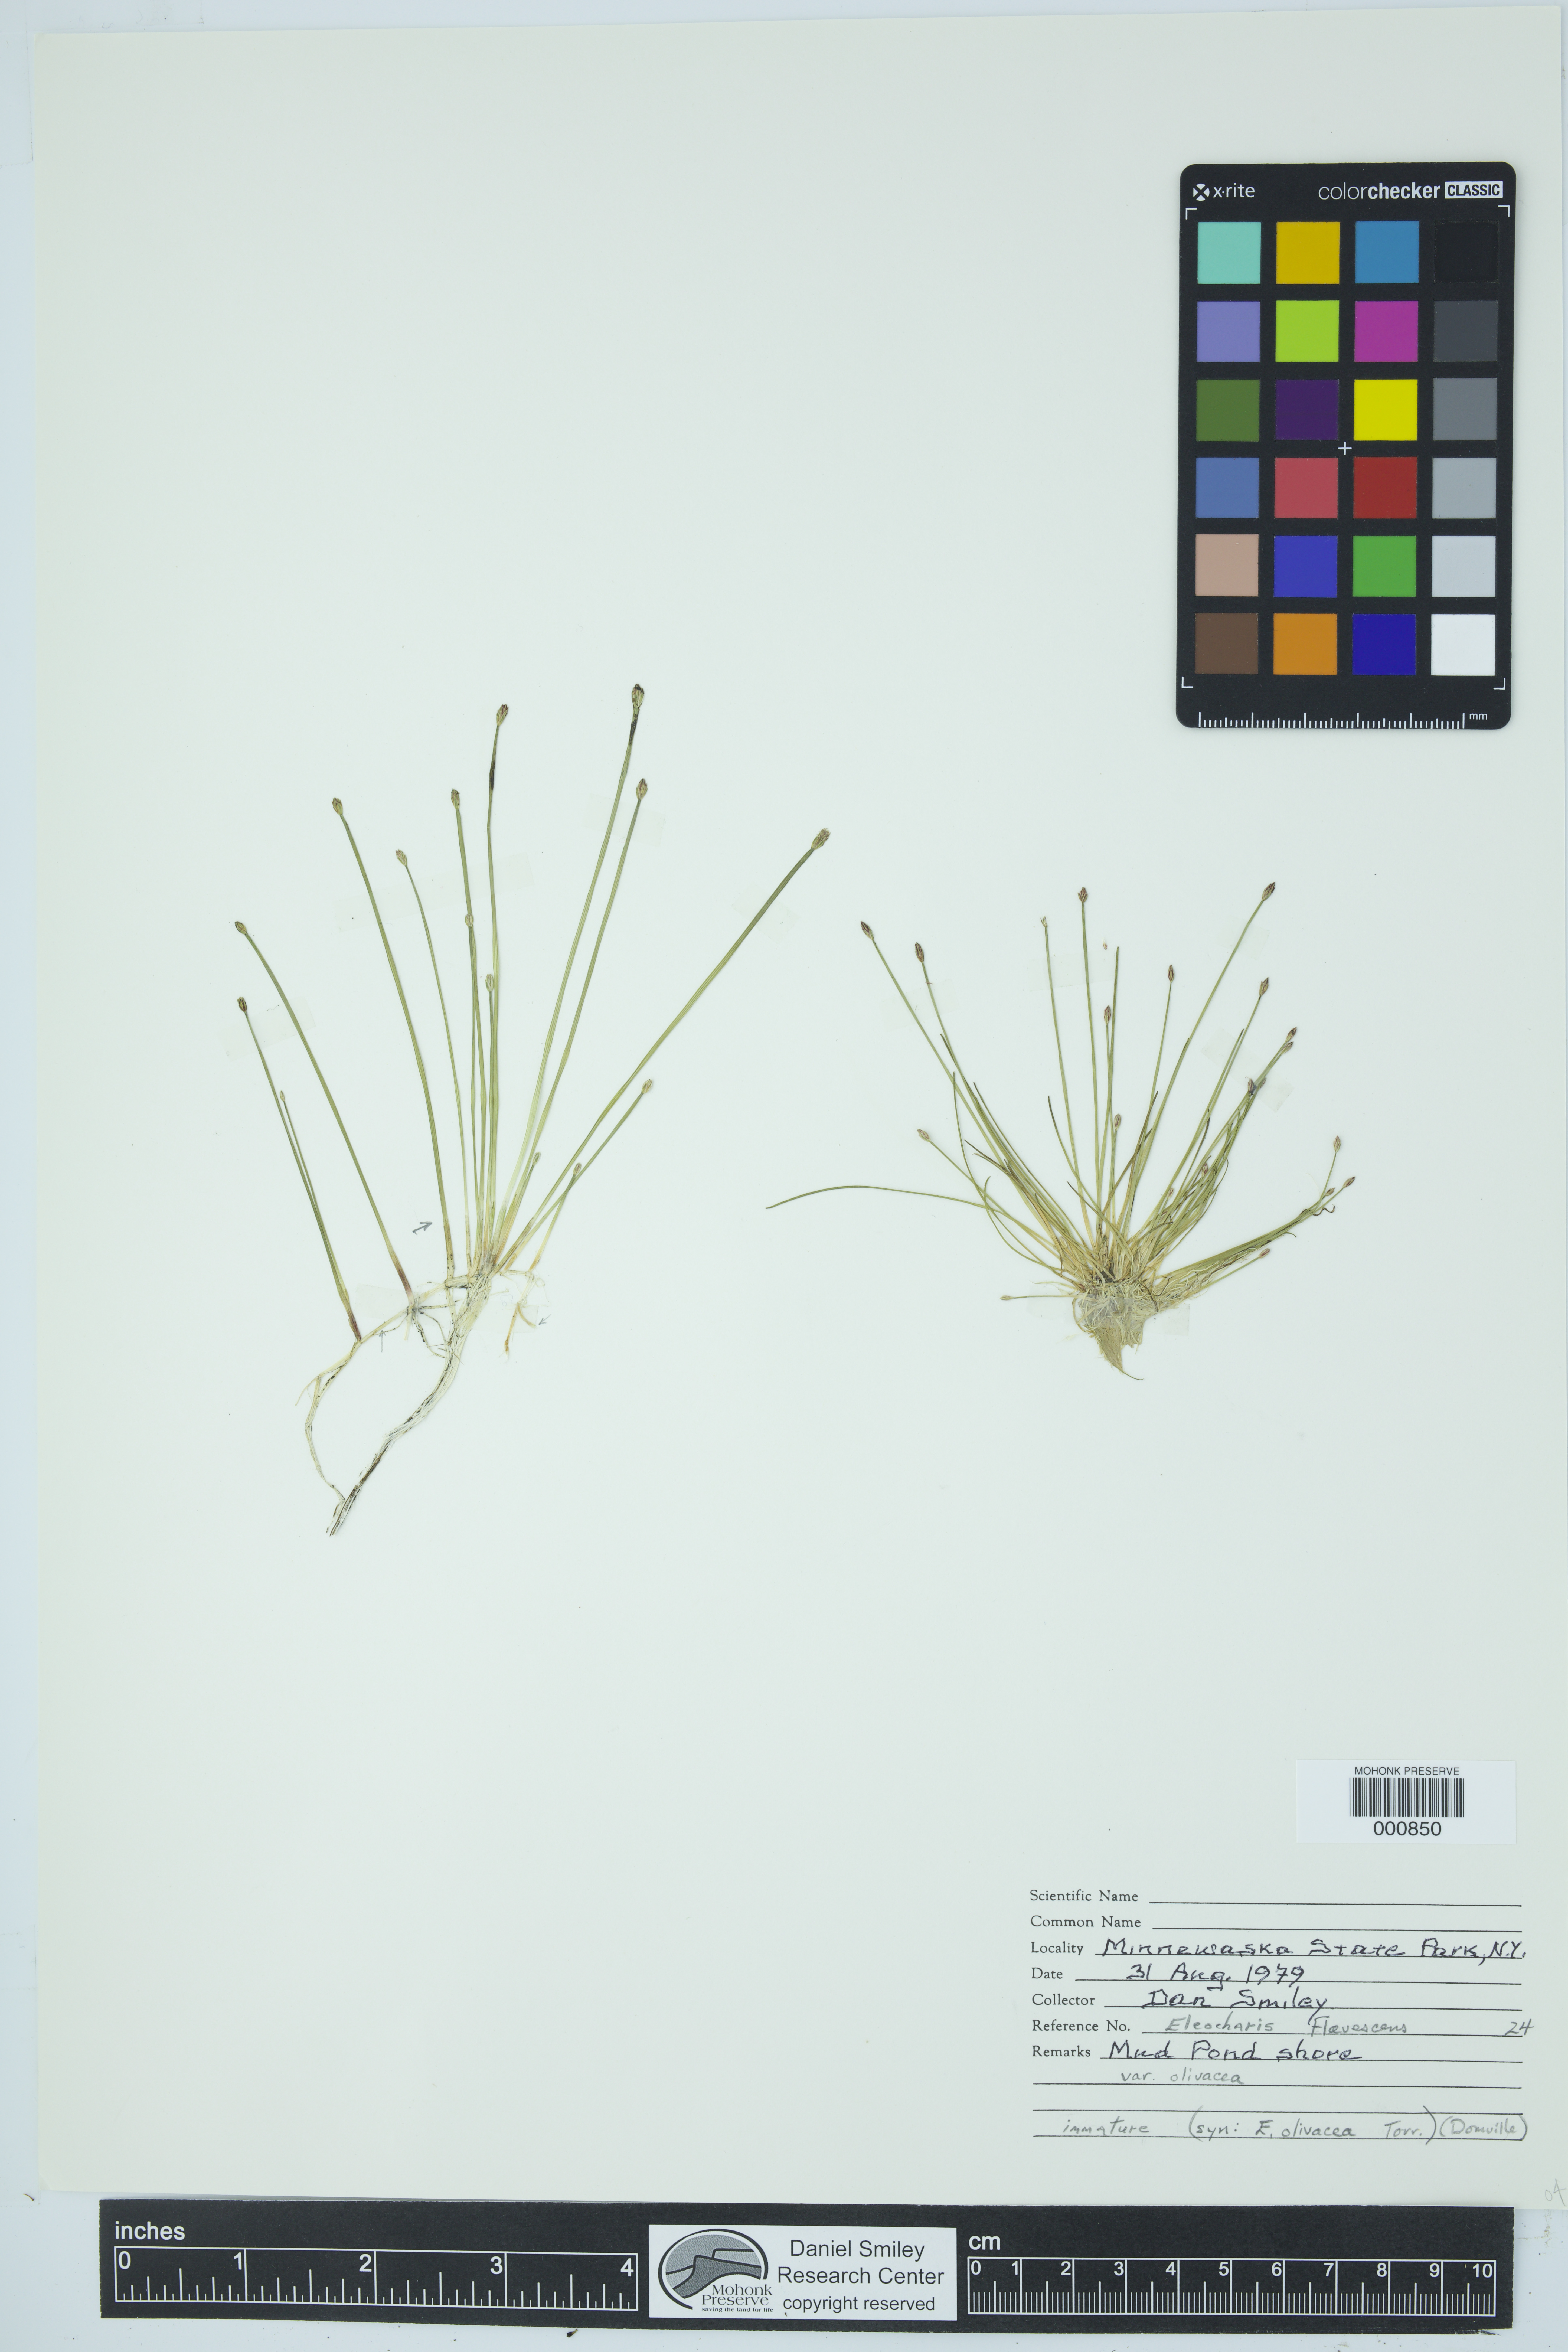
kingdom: Plantae
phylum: Tracheophyta
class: Liliopsida
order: Poales
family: Cyperaceae
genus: Eleocharis
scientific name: Eleocharis flavescens
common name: Yellow spikerush
